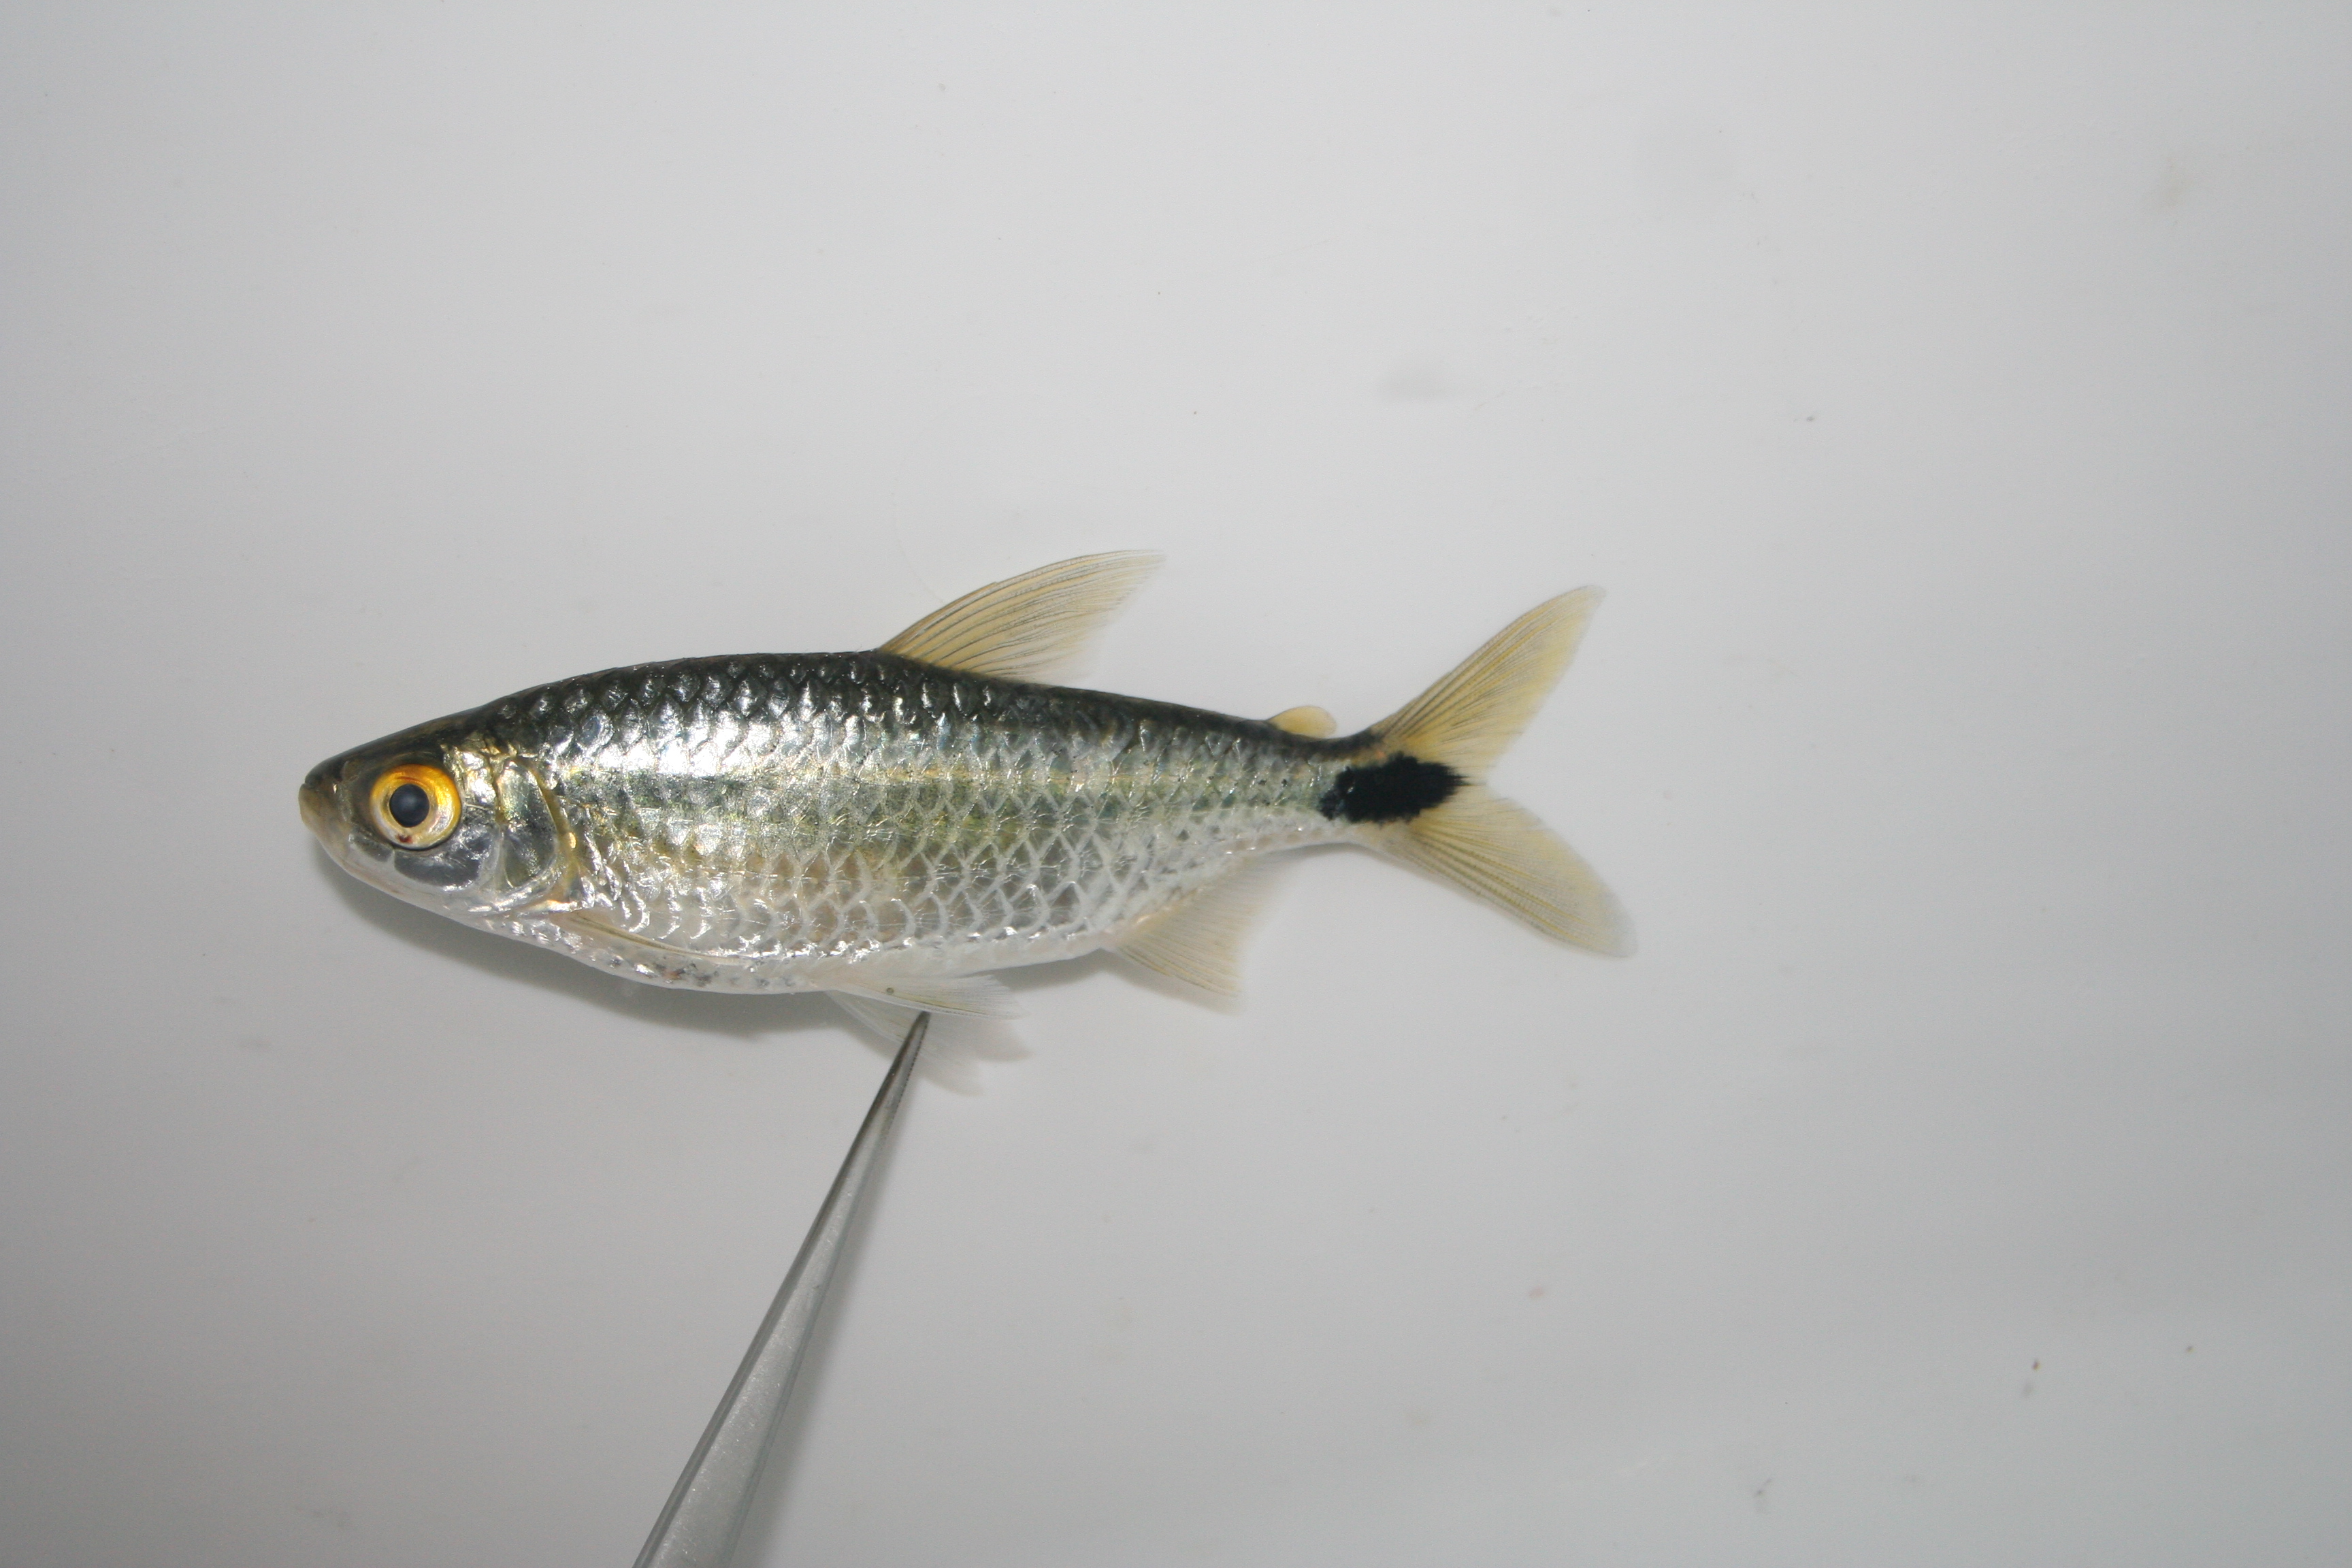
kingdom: Animalia
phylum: Chordata
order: Characiformes
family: Alestidae
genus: Brycinus
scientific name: Brycinus lateralis
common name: Striped robber
